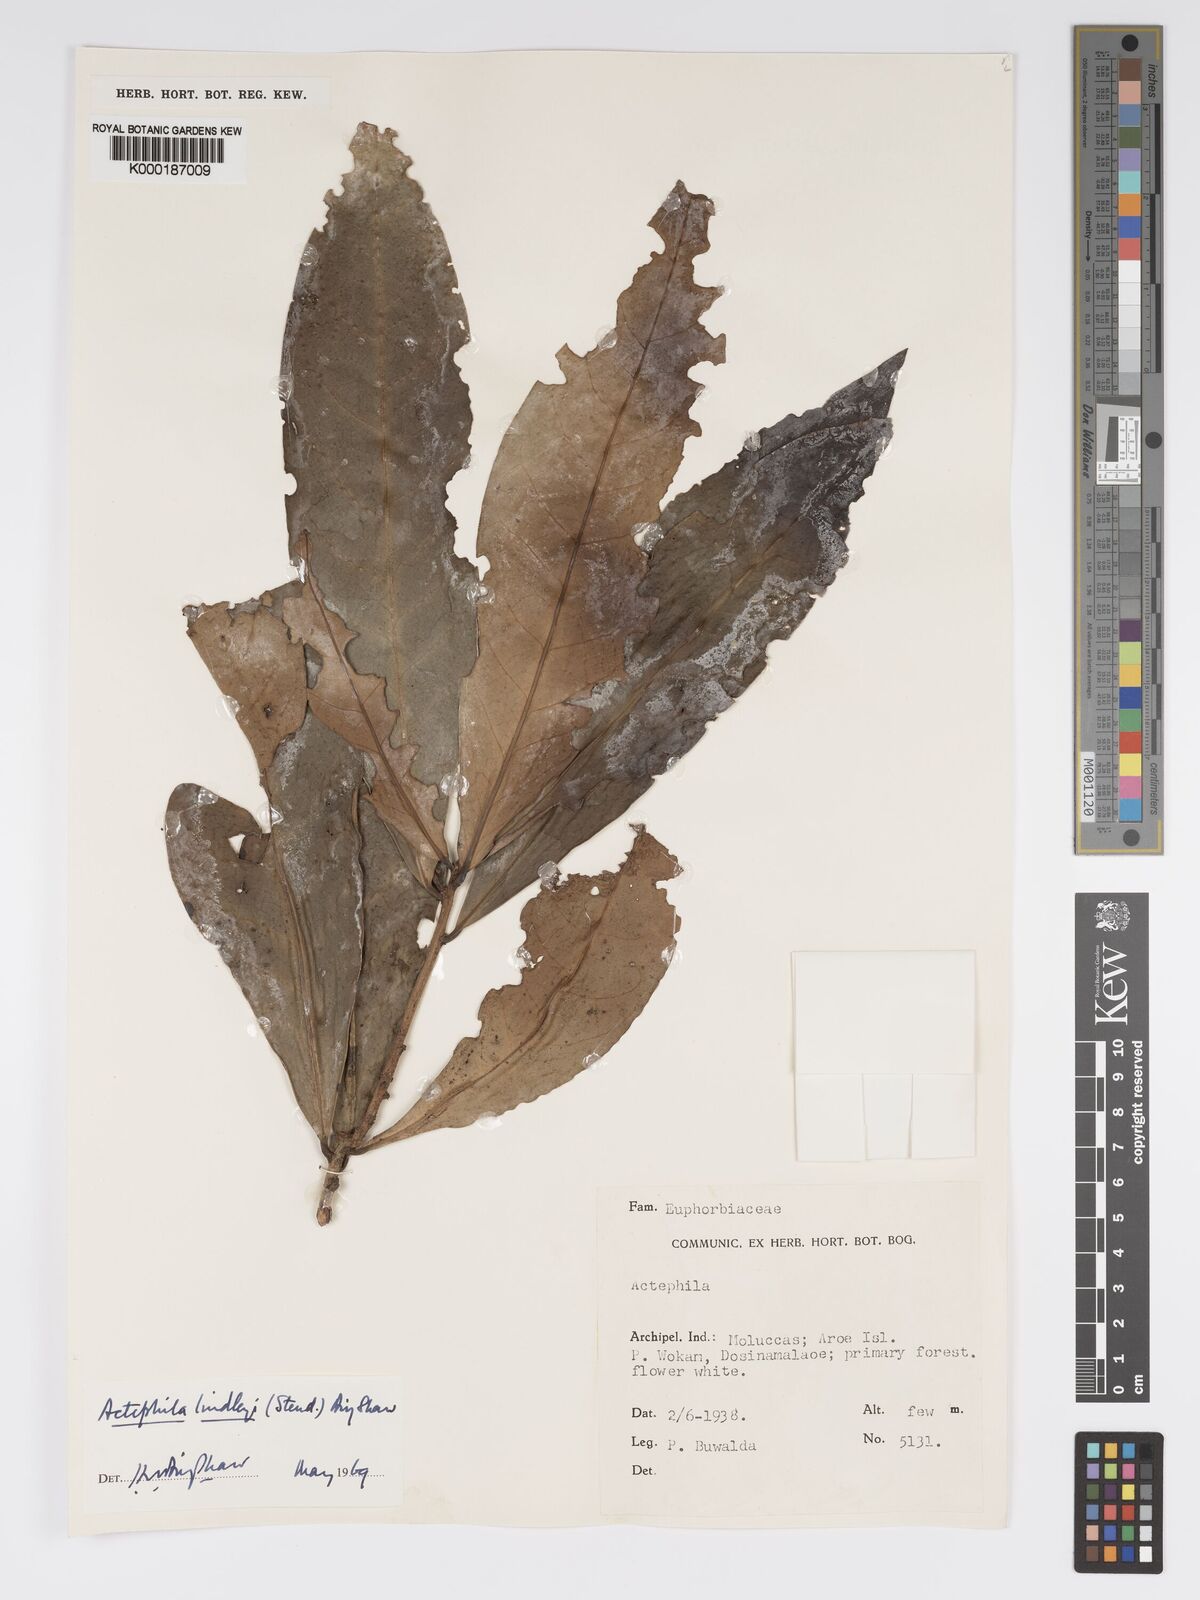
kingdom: Plantae
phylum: Tracheophyta
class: Magnoliopsida
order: Malpighiales
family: Phyllanthaceae
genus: Actephila
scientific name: Actephila lindleyi
